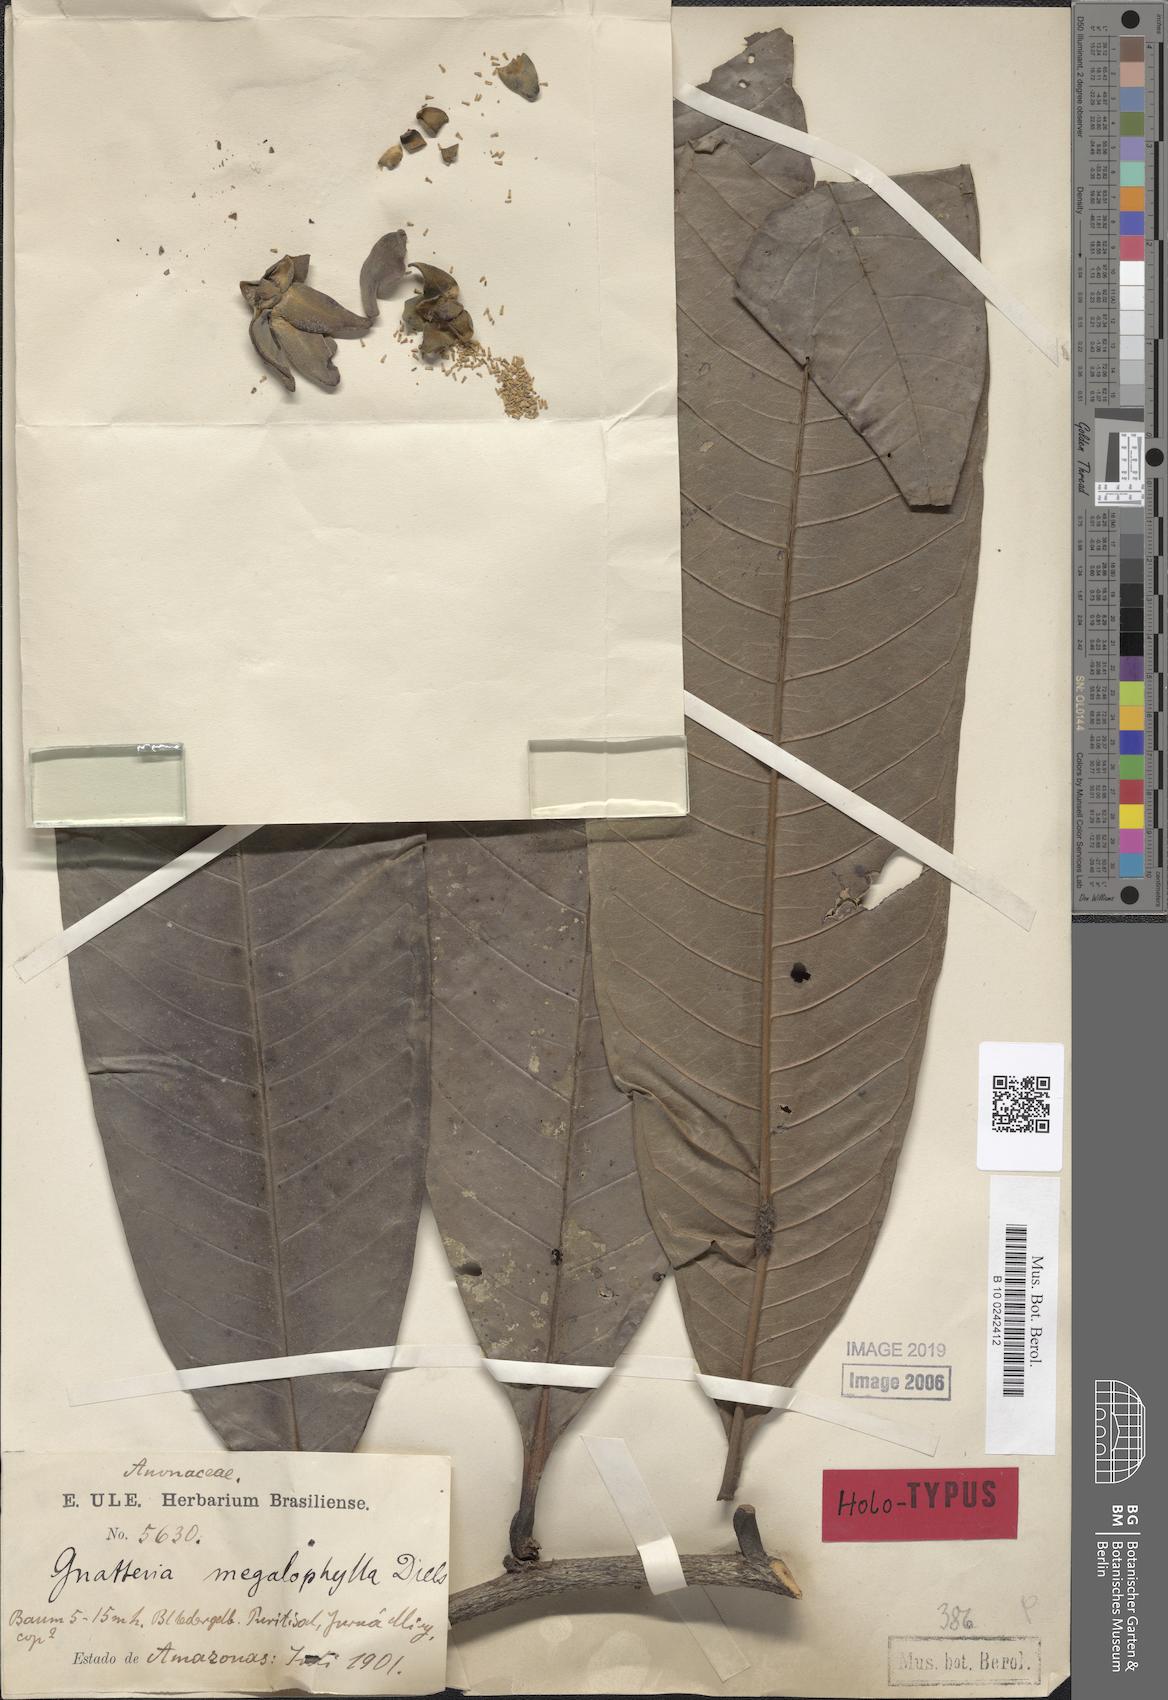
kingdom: Plantae
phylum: Tracheophyta
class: Magnoliopsida
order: Magnoliales
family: Annonaceae
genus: Guatteria
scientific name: Guatteria megalophylla
